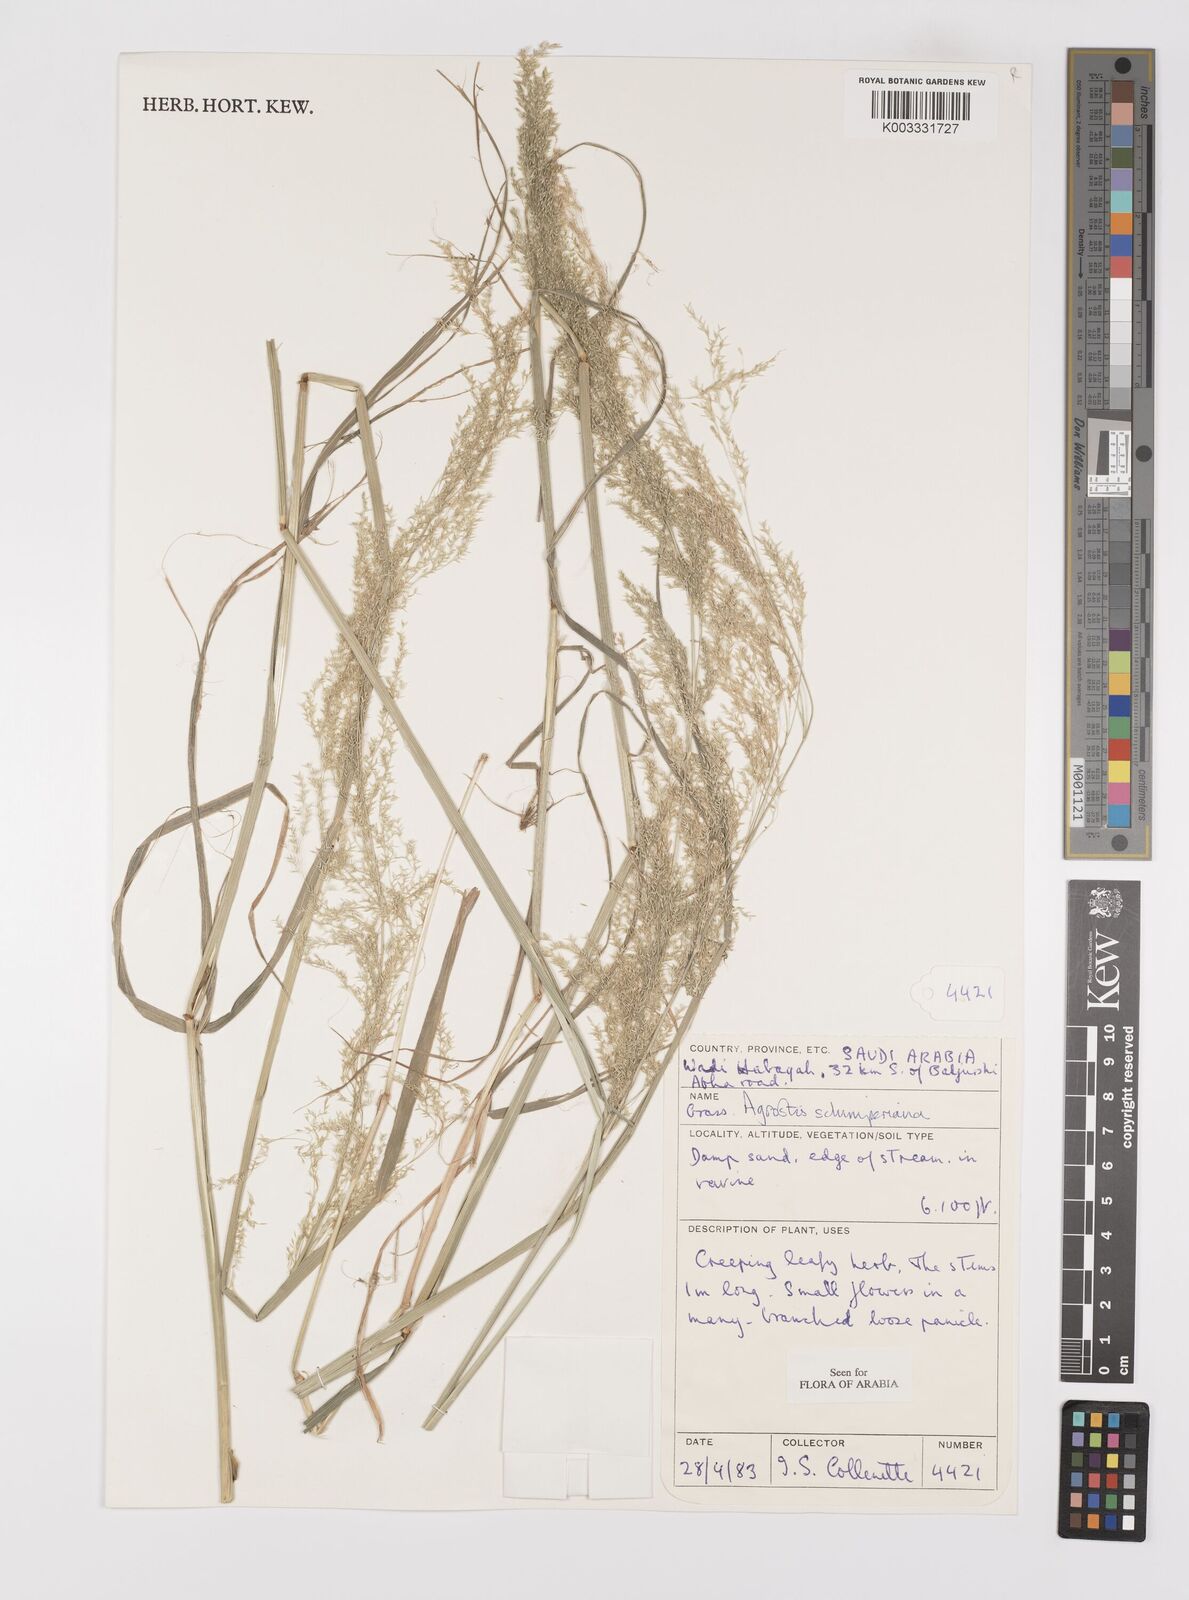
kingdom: Plantae
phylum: Tracheophyta
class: Liliopsida
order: Poales
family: Poaceae
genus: Polypogon
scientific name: Polypogon schimperianus
